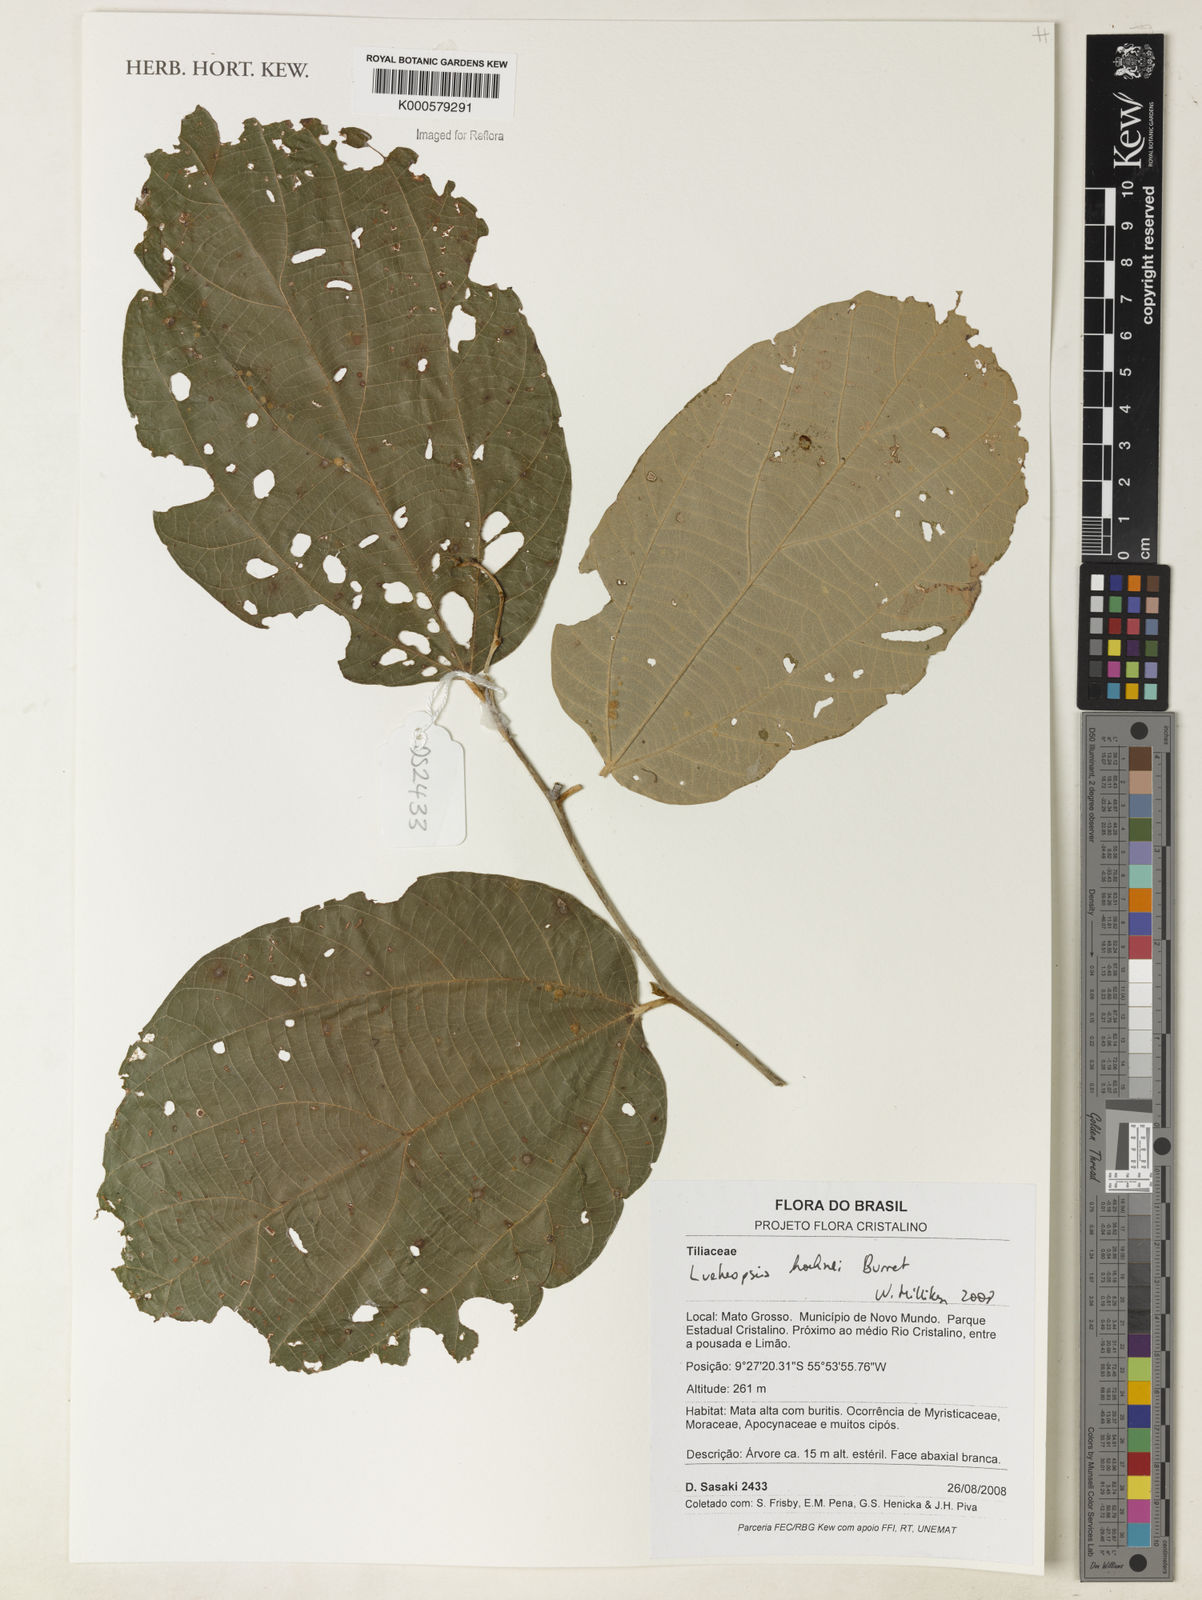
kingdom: Plantae
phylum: Tracheophyta
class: Magnoliopsida
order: Malvales
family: Malvaceae
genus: Lueheopsis
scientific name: Lueheopsis hoehnei
